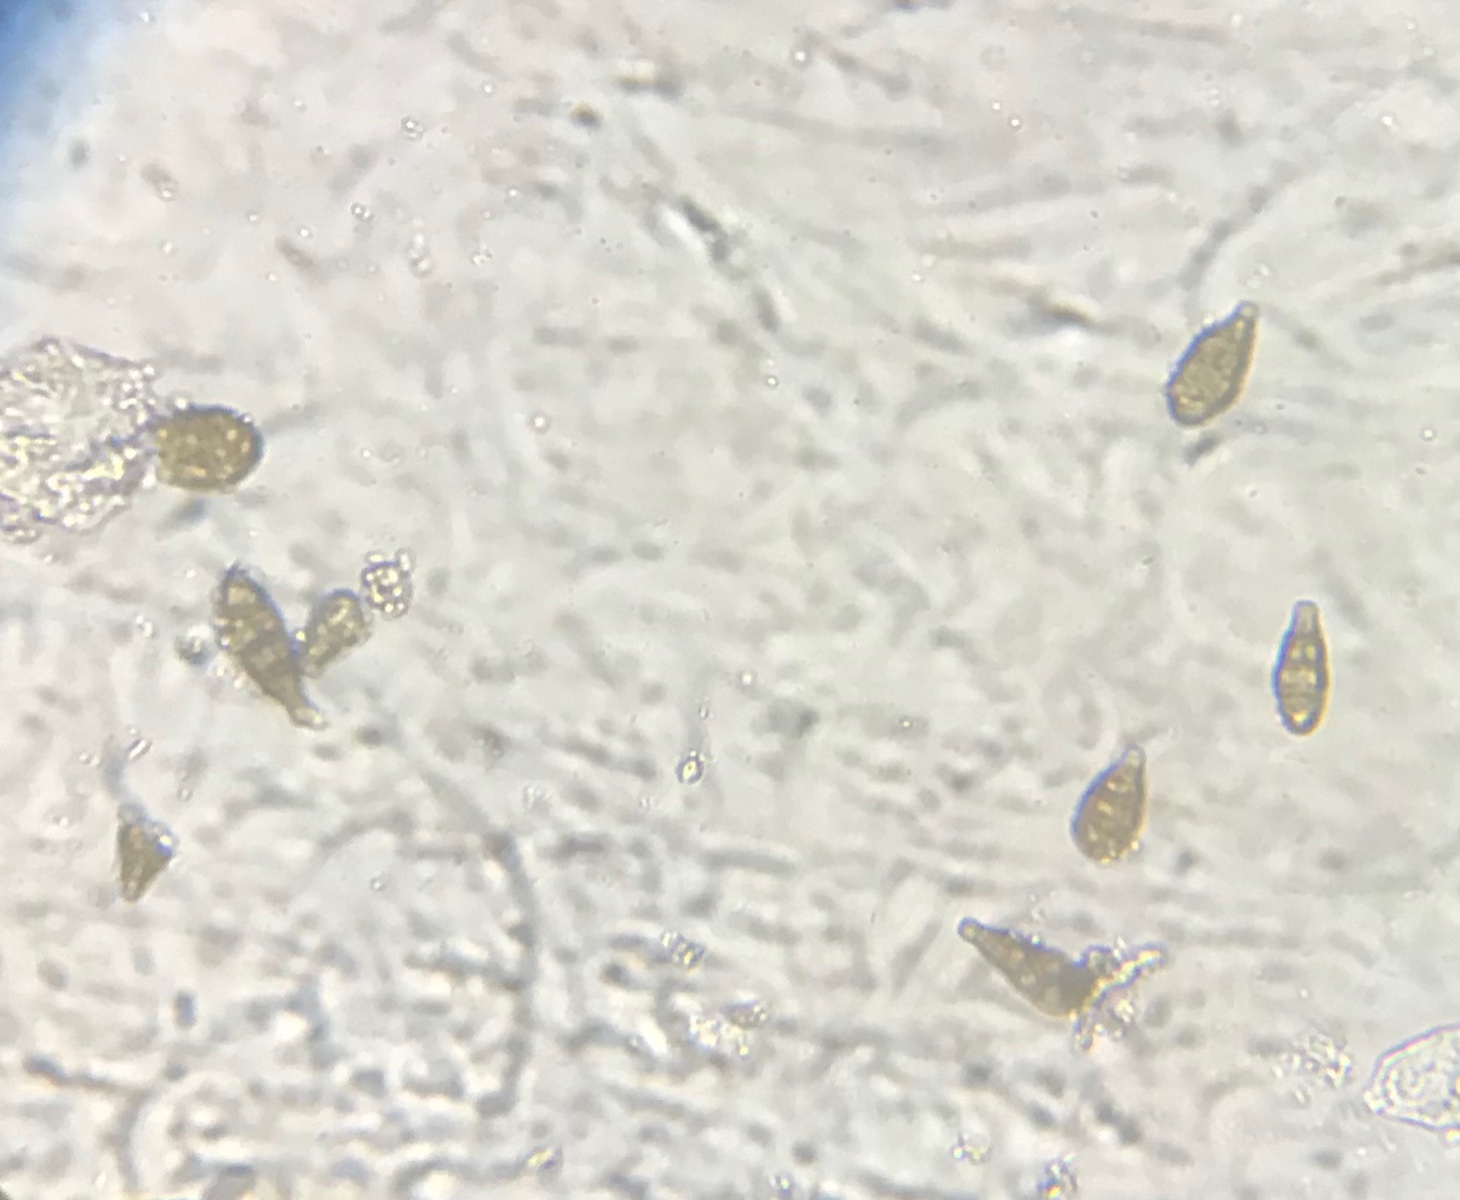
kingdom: Fungi
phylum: Ascomycota
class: Dothideomycetes
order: Pleosporales
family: Pleosporaceae
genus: Alternaria
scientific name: Alternaria
